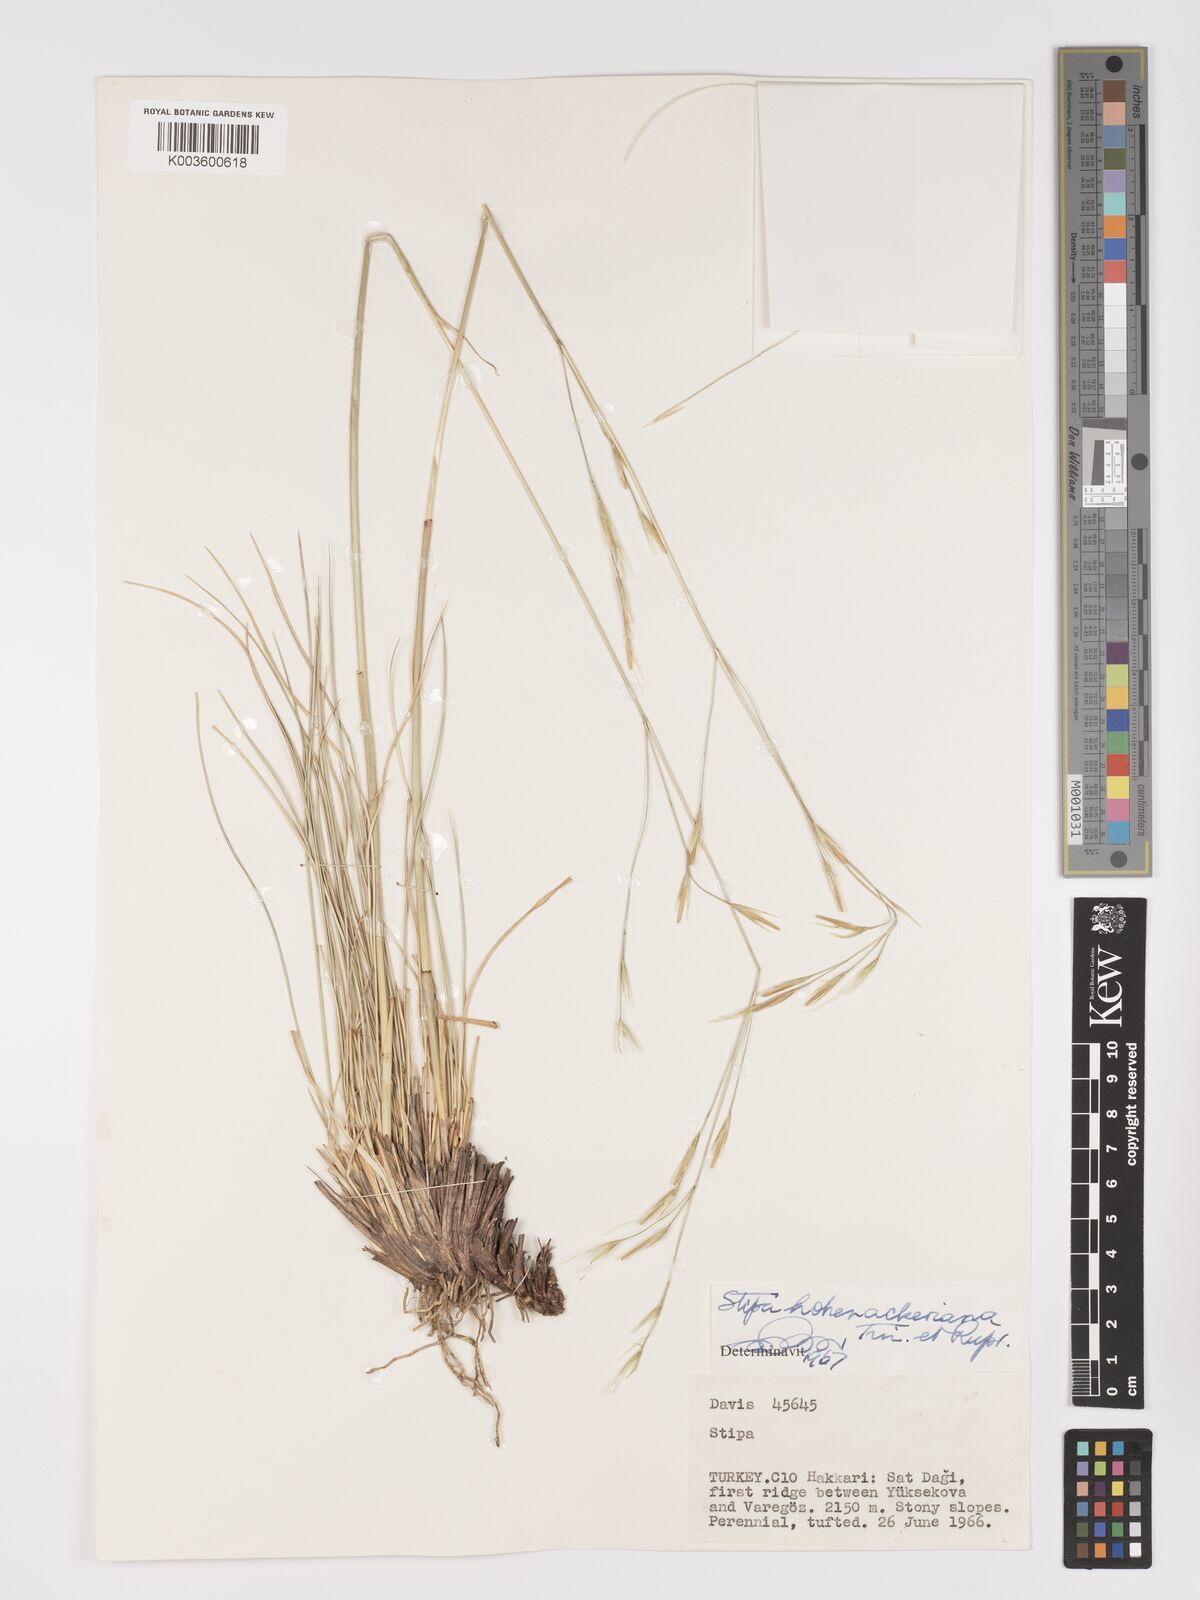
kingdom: Plantae
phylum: Tracheophyta
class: Liliopsida
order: Poales
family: Poaceae
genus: Stipa
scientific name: Stipa hohenackeriana
